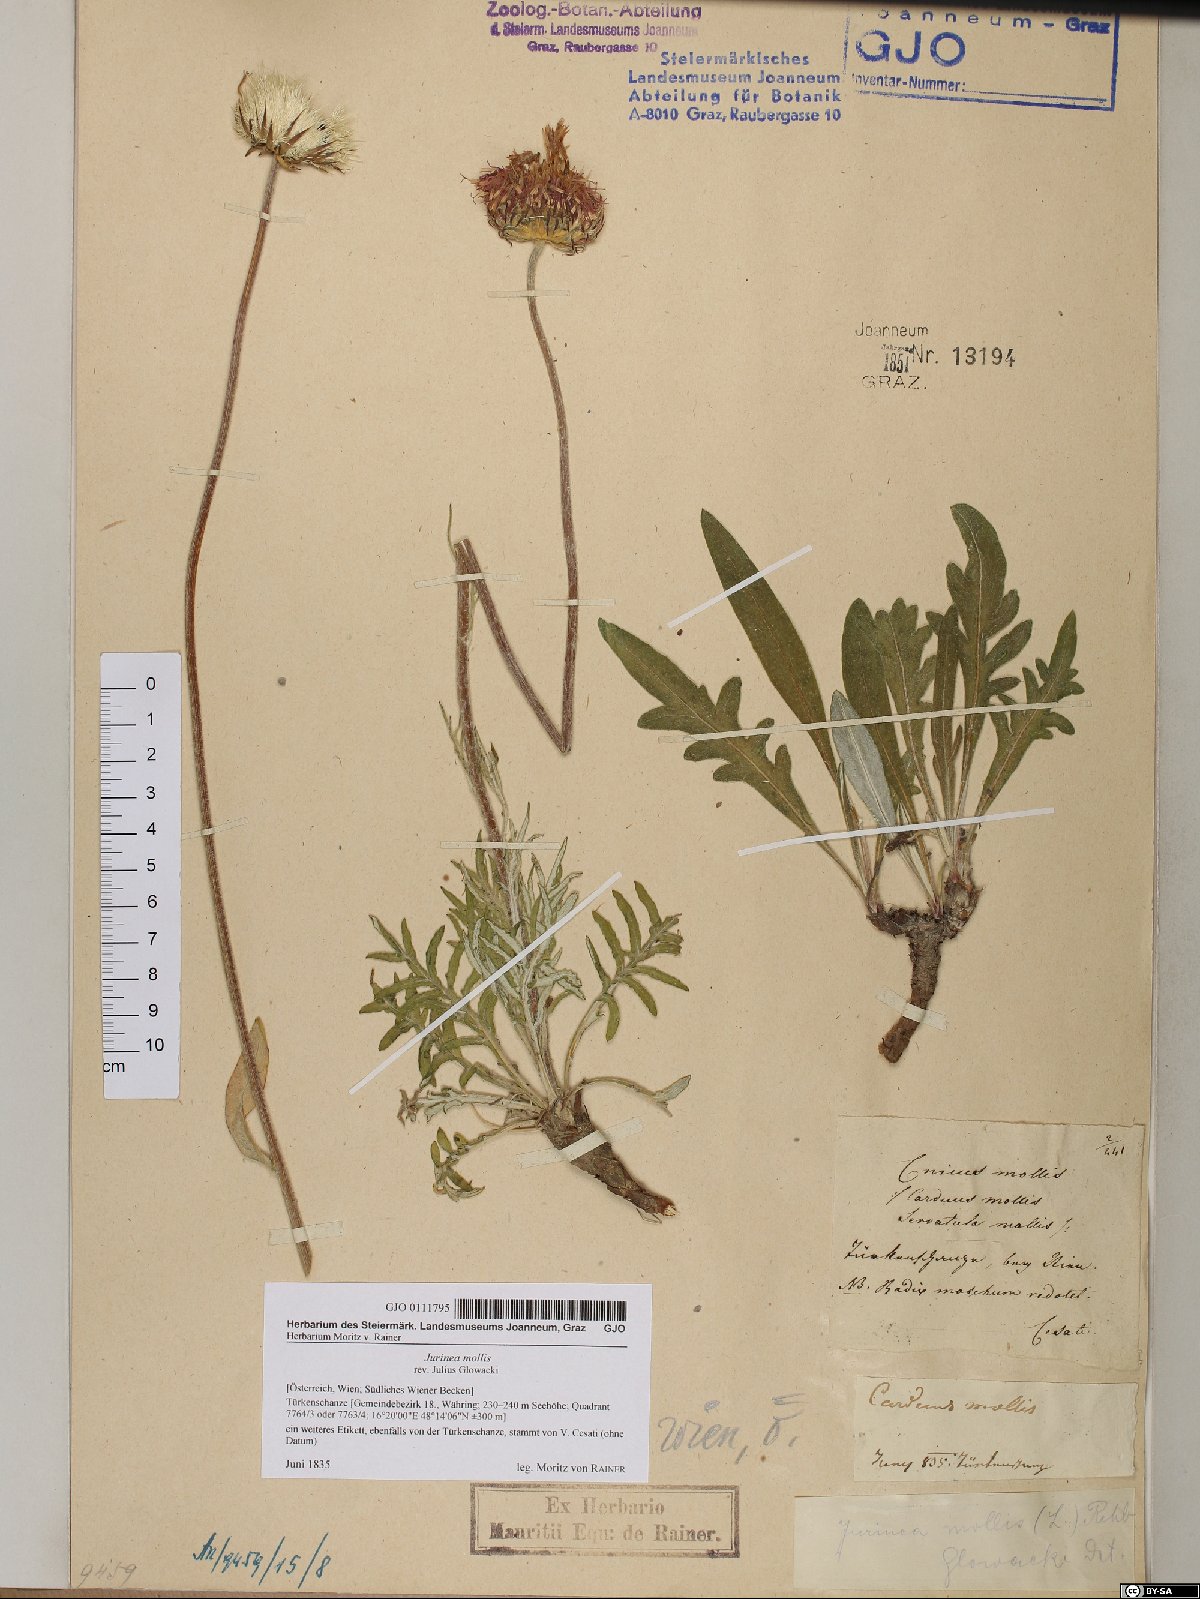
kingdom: Plantae
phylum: Tracheophyta
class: Magnoliopsida
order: Asterales
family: Asteraceae
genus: Jurinea
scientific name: Jurinea mollis
